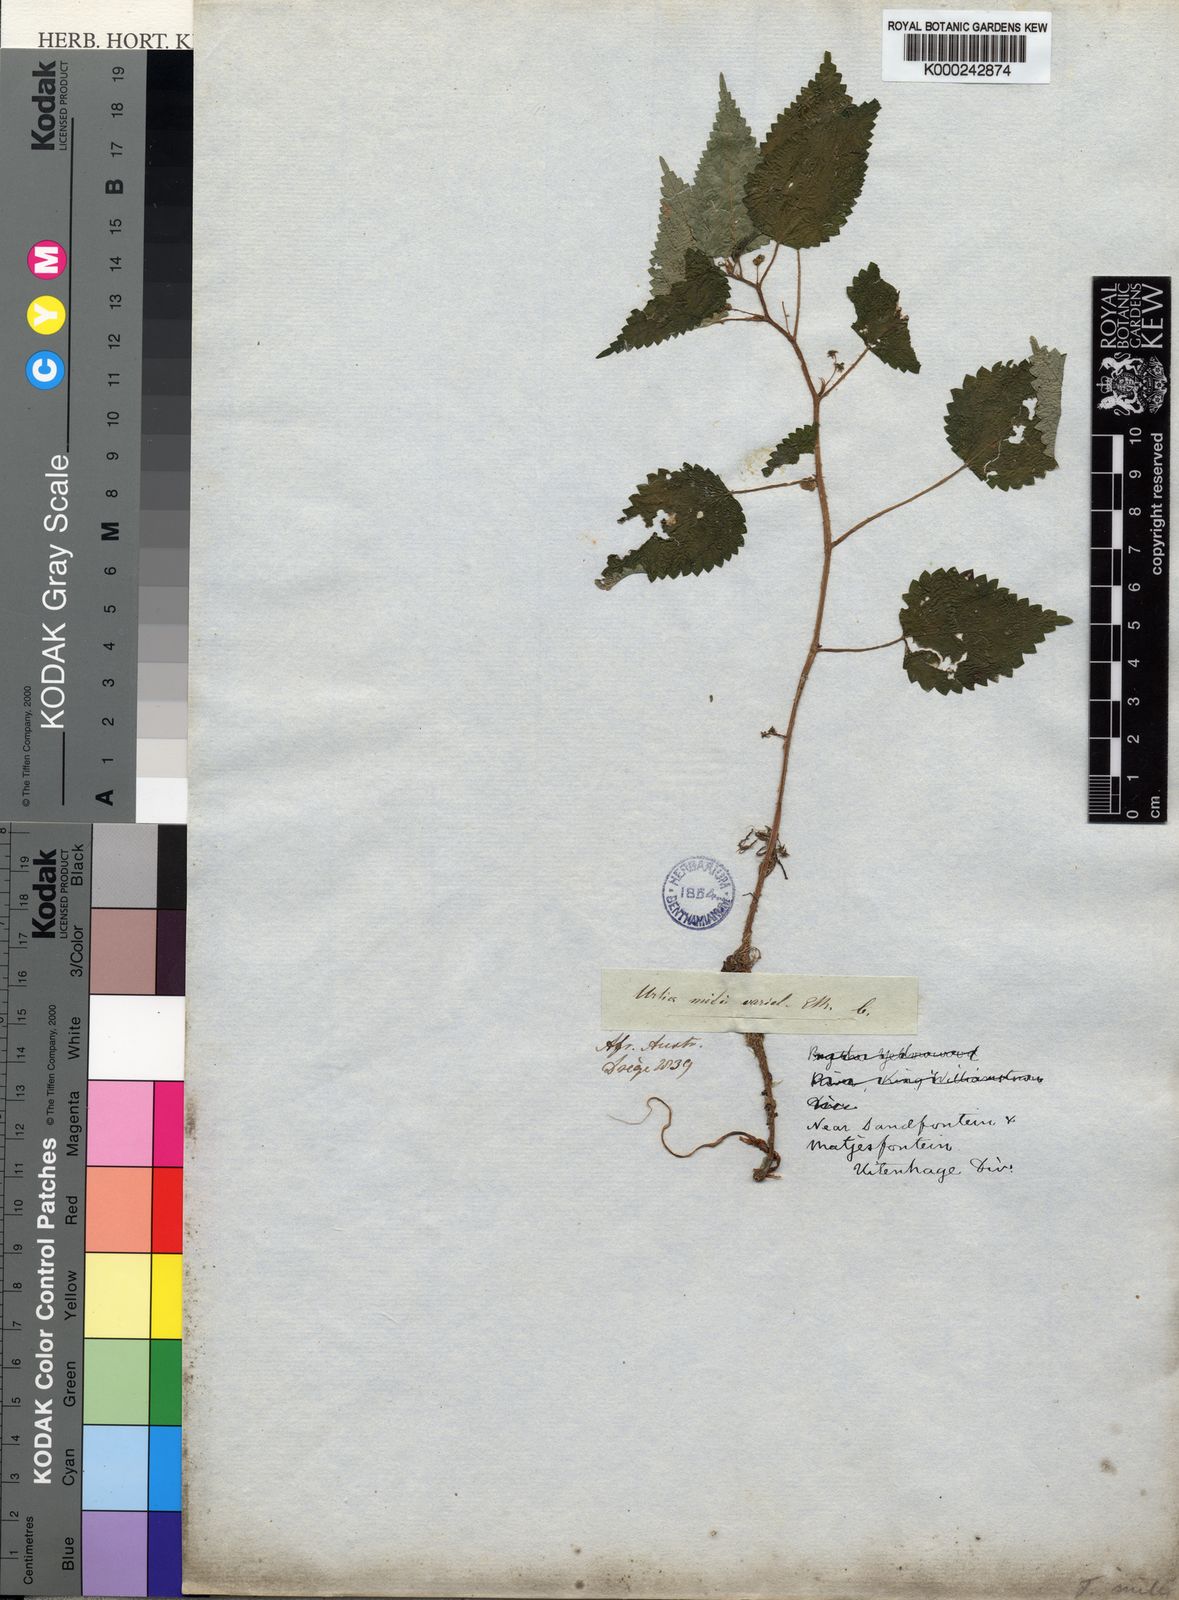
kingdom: Plantae
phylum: Tracheophyta
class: Magnoliopsida
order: Rosales
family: Urticaceae
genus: Laportea
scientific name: Laportea peduncularis
